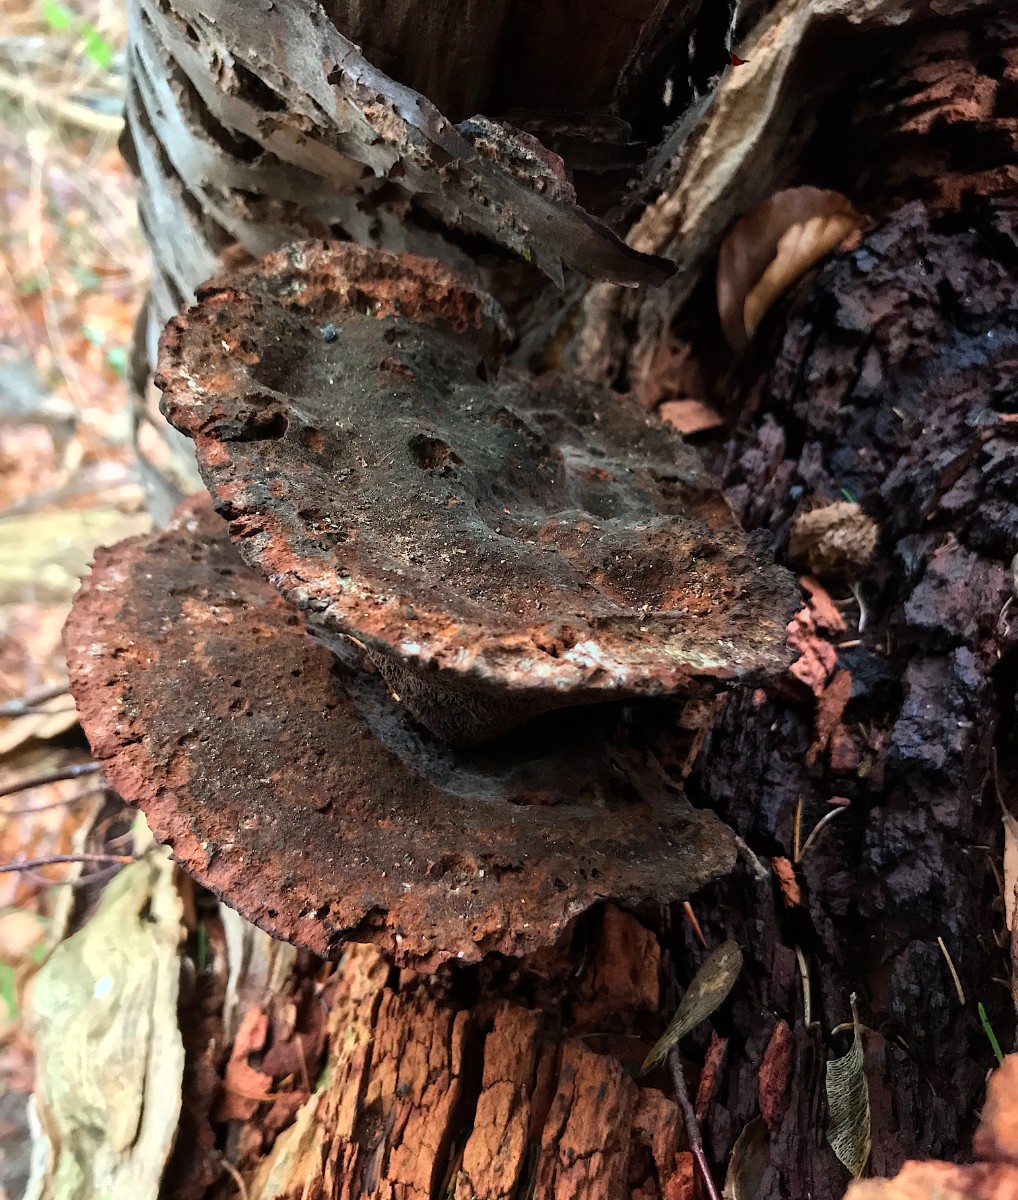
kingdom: Fungi
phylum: Basidiomycota
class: Agaricomycetes
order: Polyporales
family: Laetiporaceae
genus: Phaeolus
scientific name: Phaeolus schweinitzii
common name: brunporesvamp
